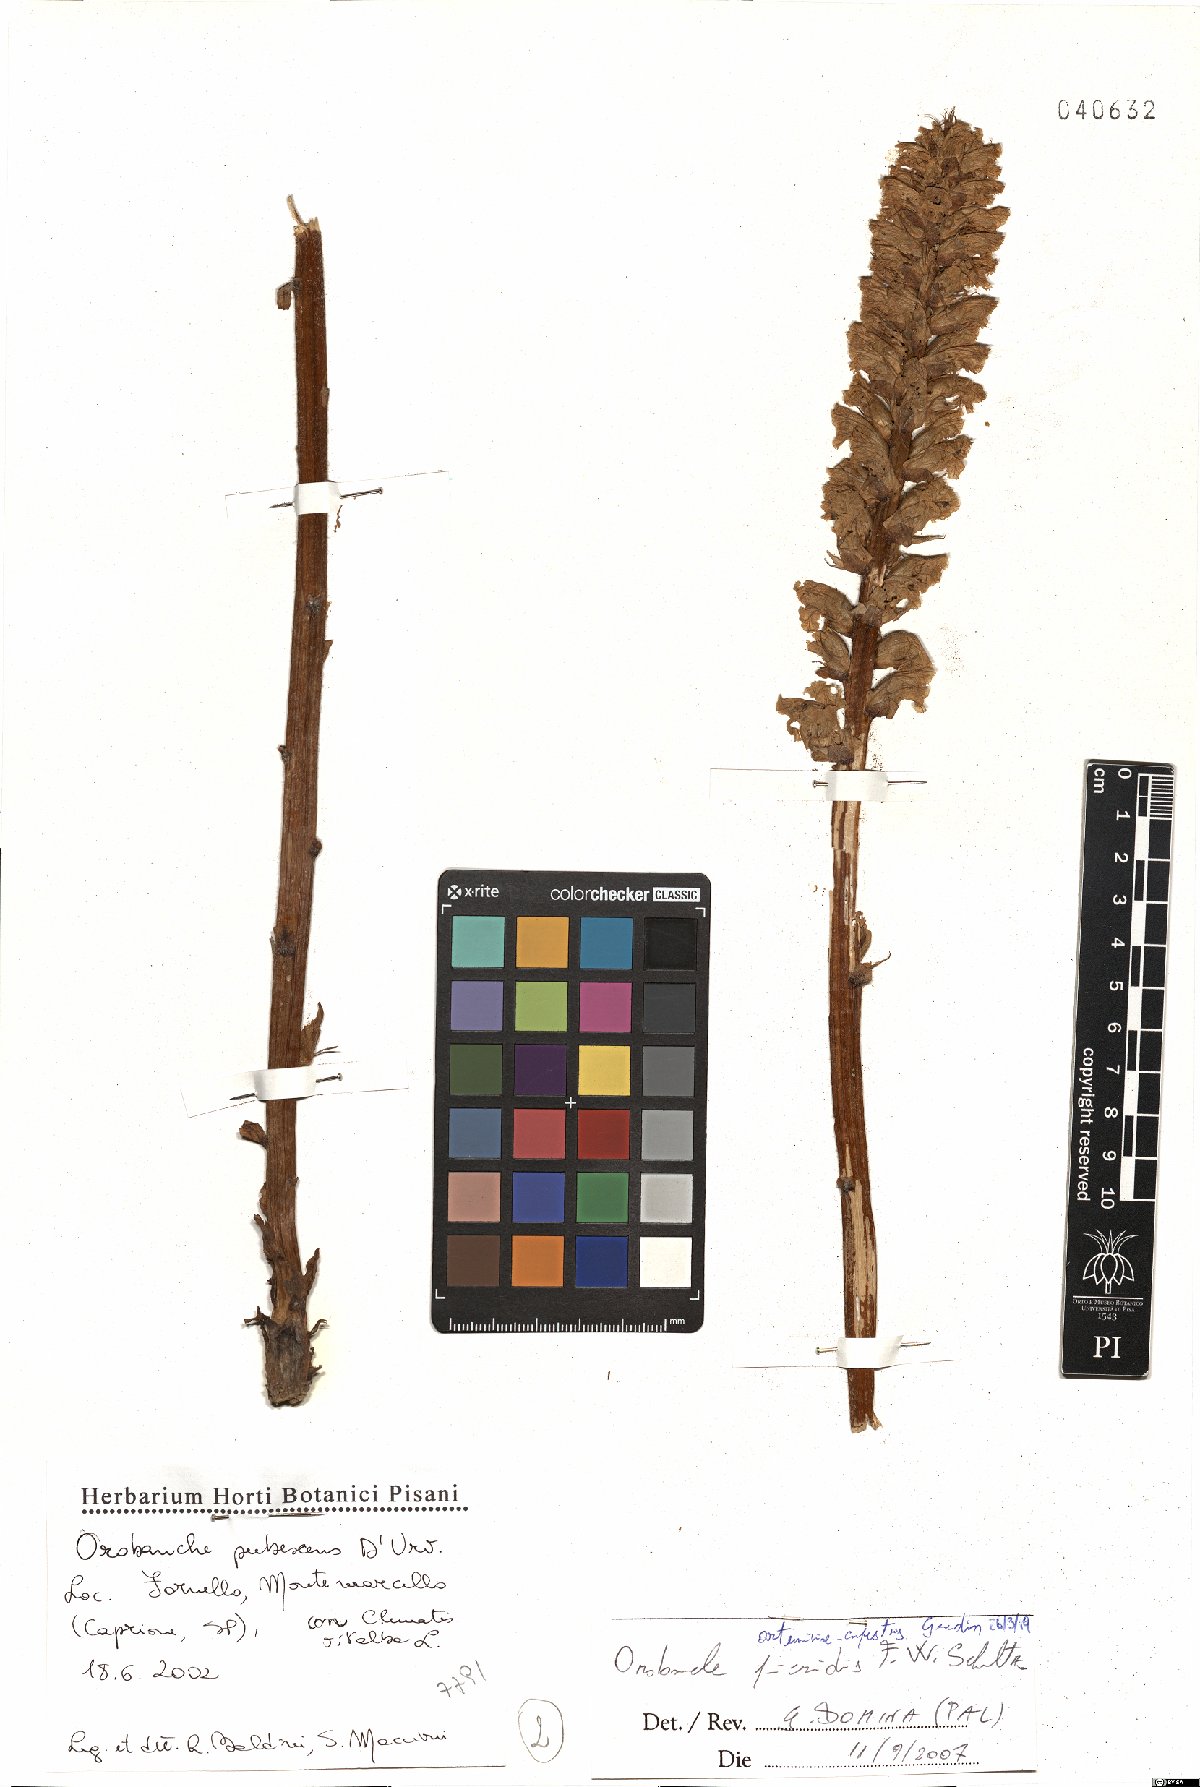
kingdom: Plantae
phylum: Tracheophyta
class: Magnoliopsida
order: Lamiales
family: Orobanchaceae
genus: Orobanche
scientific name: Orobanche artemisiae-campestris
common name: Oxtongue broomrape
